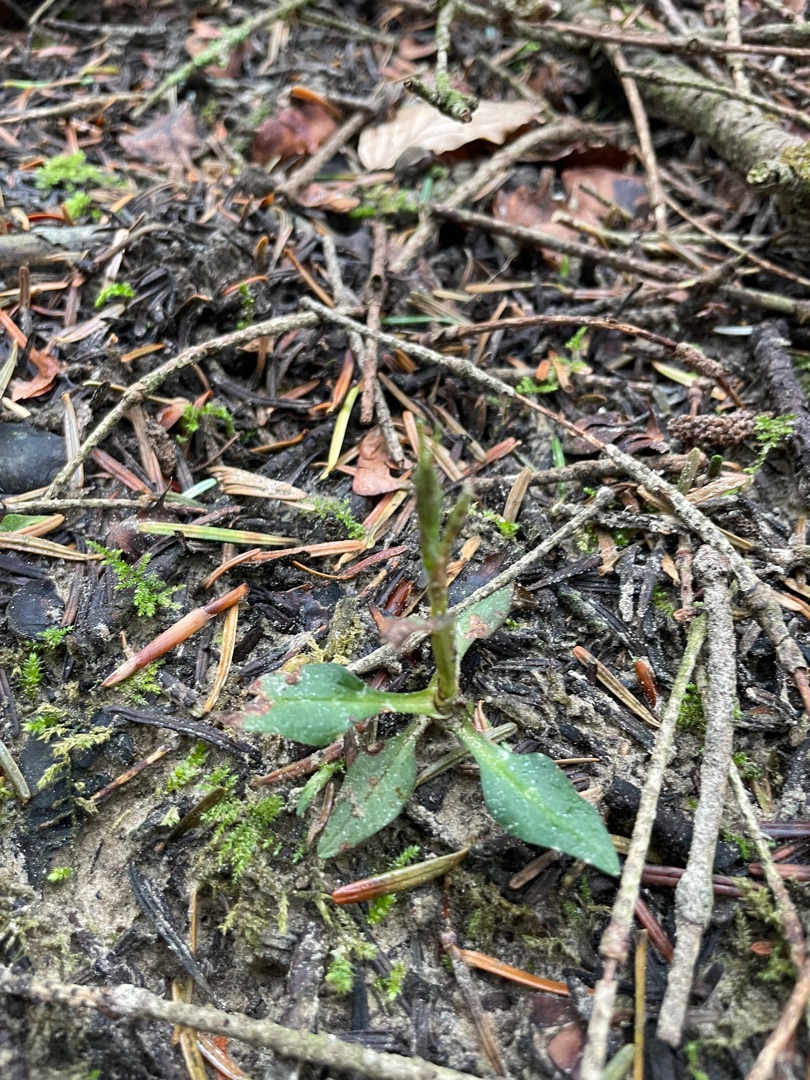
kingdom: Plantae
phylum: Tracheophyta
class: Liliopsida
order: Asparagales
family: Orchidaceae
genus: Goodyera
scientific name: Goodyera repens
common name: Knærod
